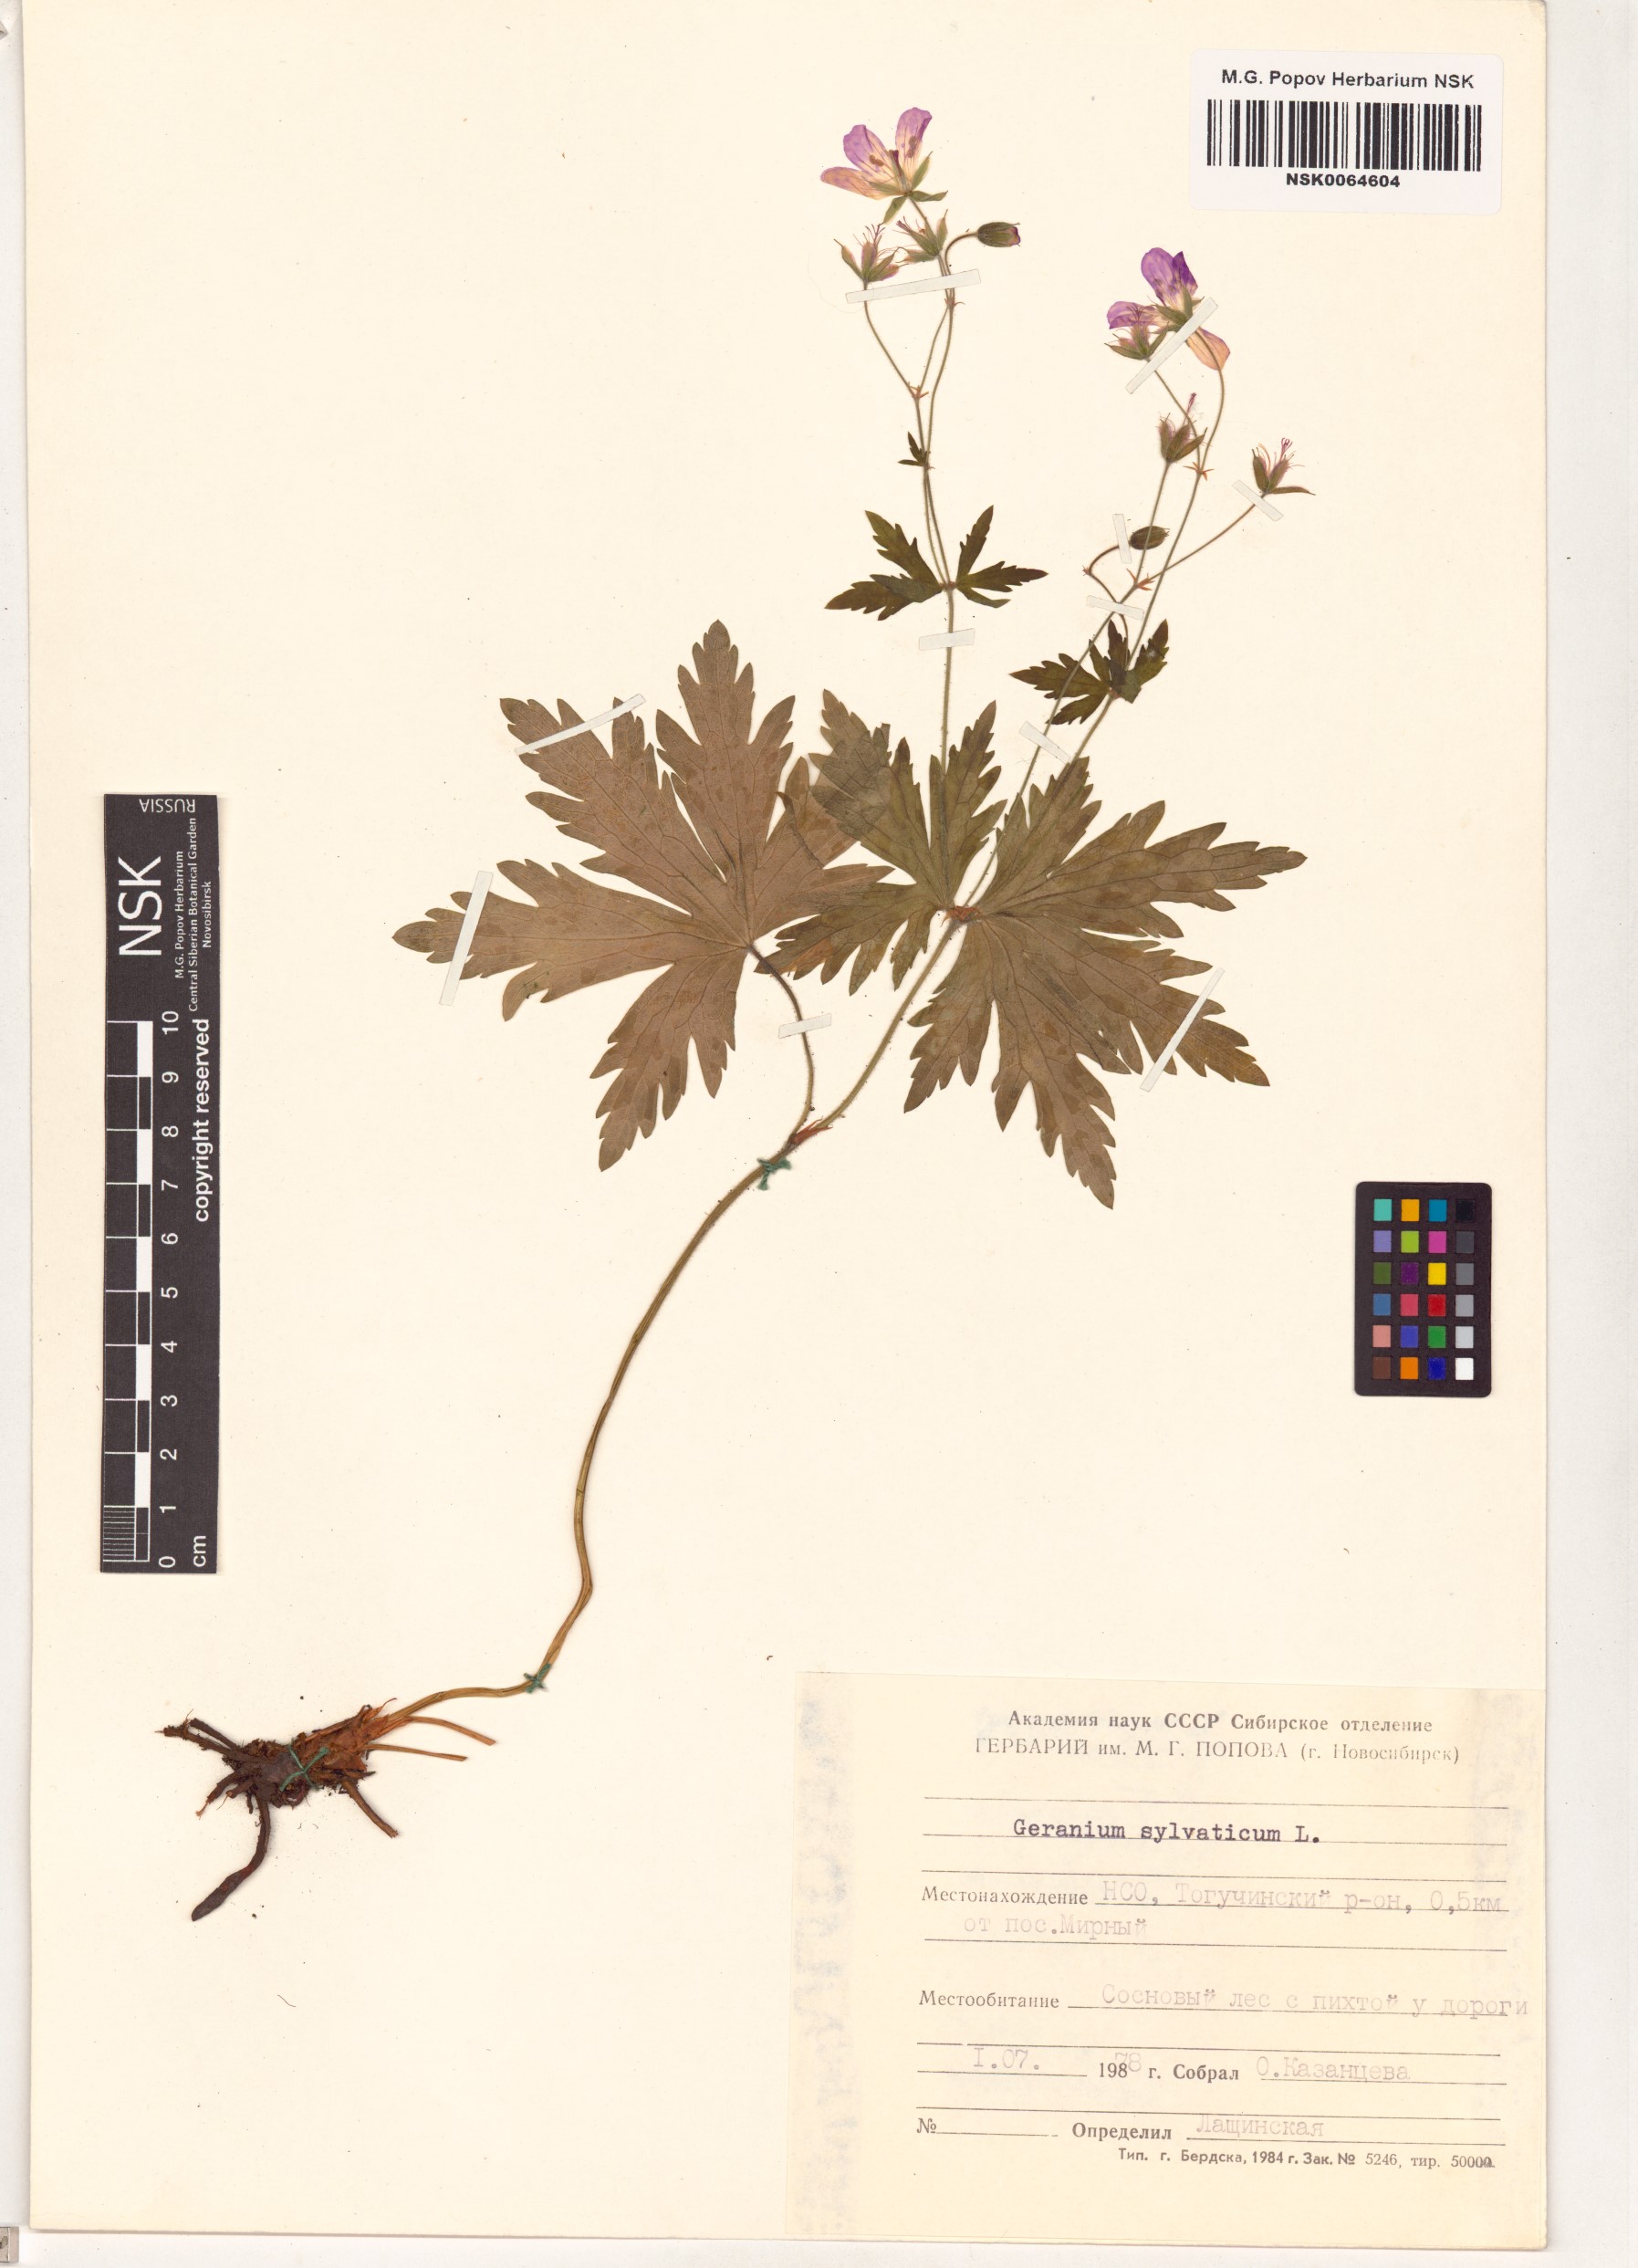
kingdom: Plantae
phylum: Tracheophyta
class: Magnoliopsida
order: Geraniales
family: Geraniaceae
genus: Geranium
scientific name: Geranium sylvaticum
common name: Wood crane's-bill
